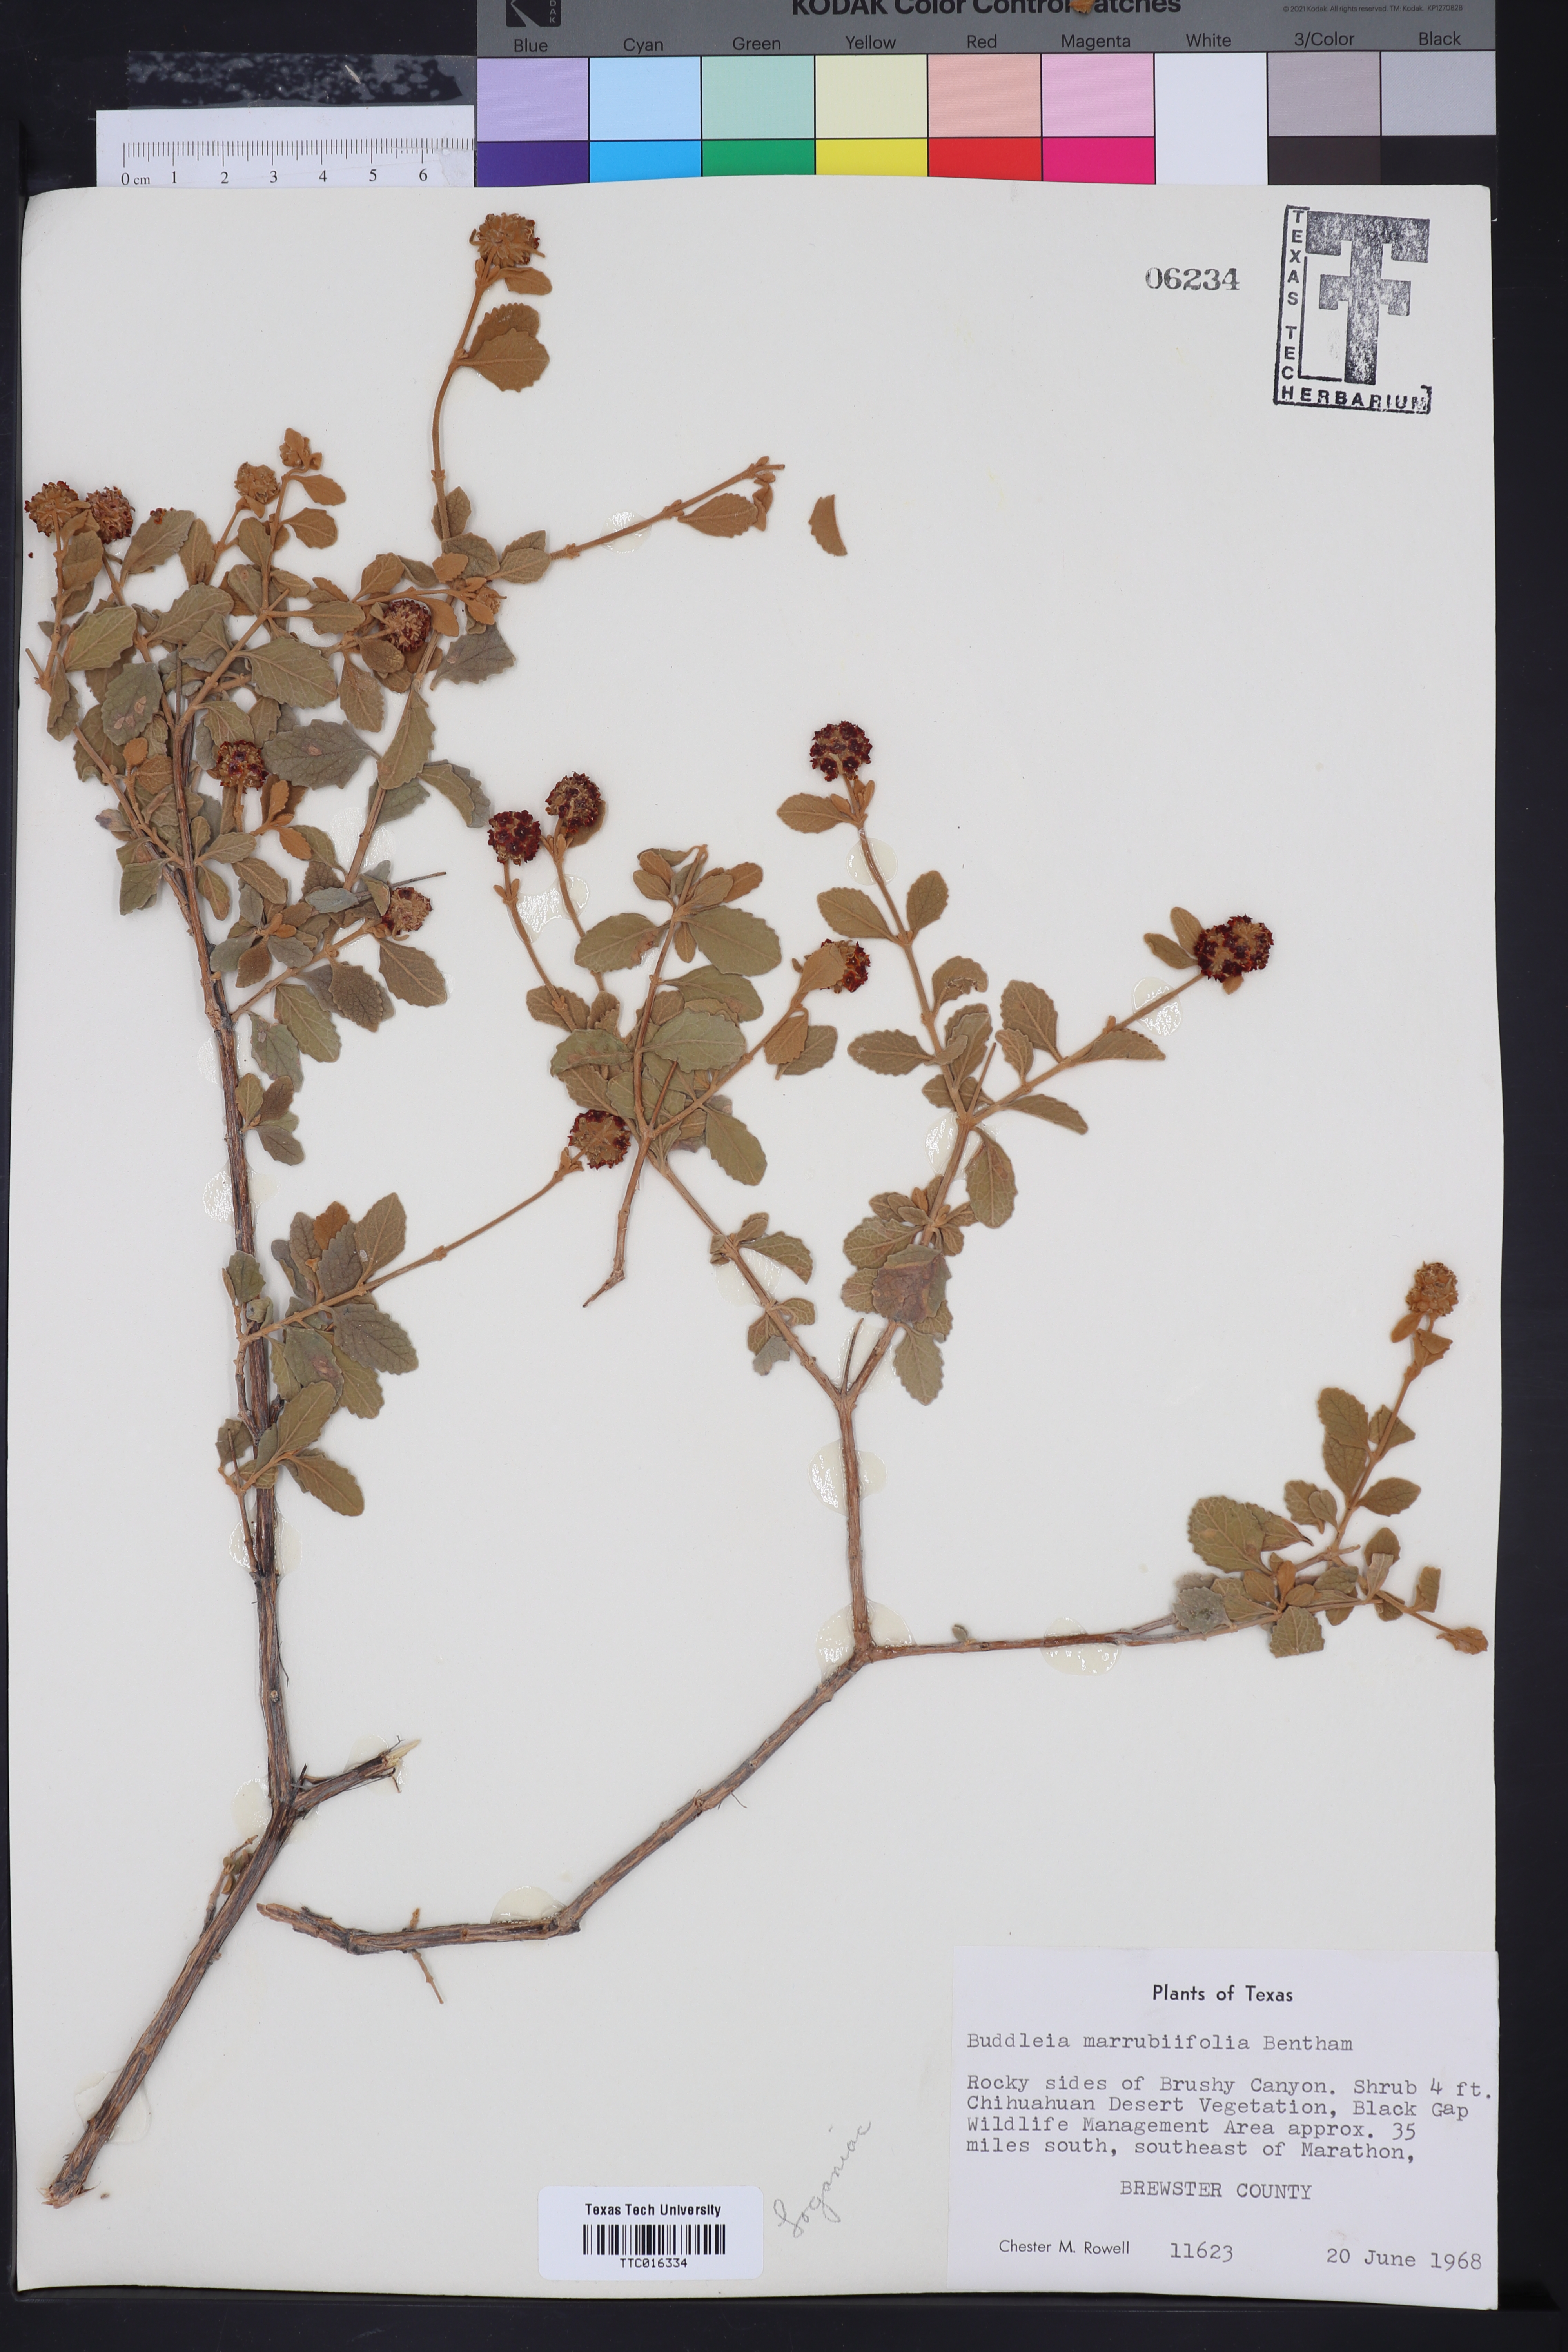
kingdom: Plantae
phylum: Tracheophyta
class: Magnoliopsida
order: Lamiales
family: Scrophulariaceae
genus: Buddleja
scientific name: Buddleja marrubiifolia
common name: Woolly butterfly-bush
